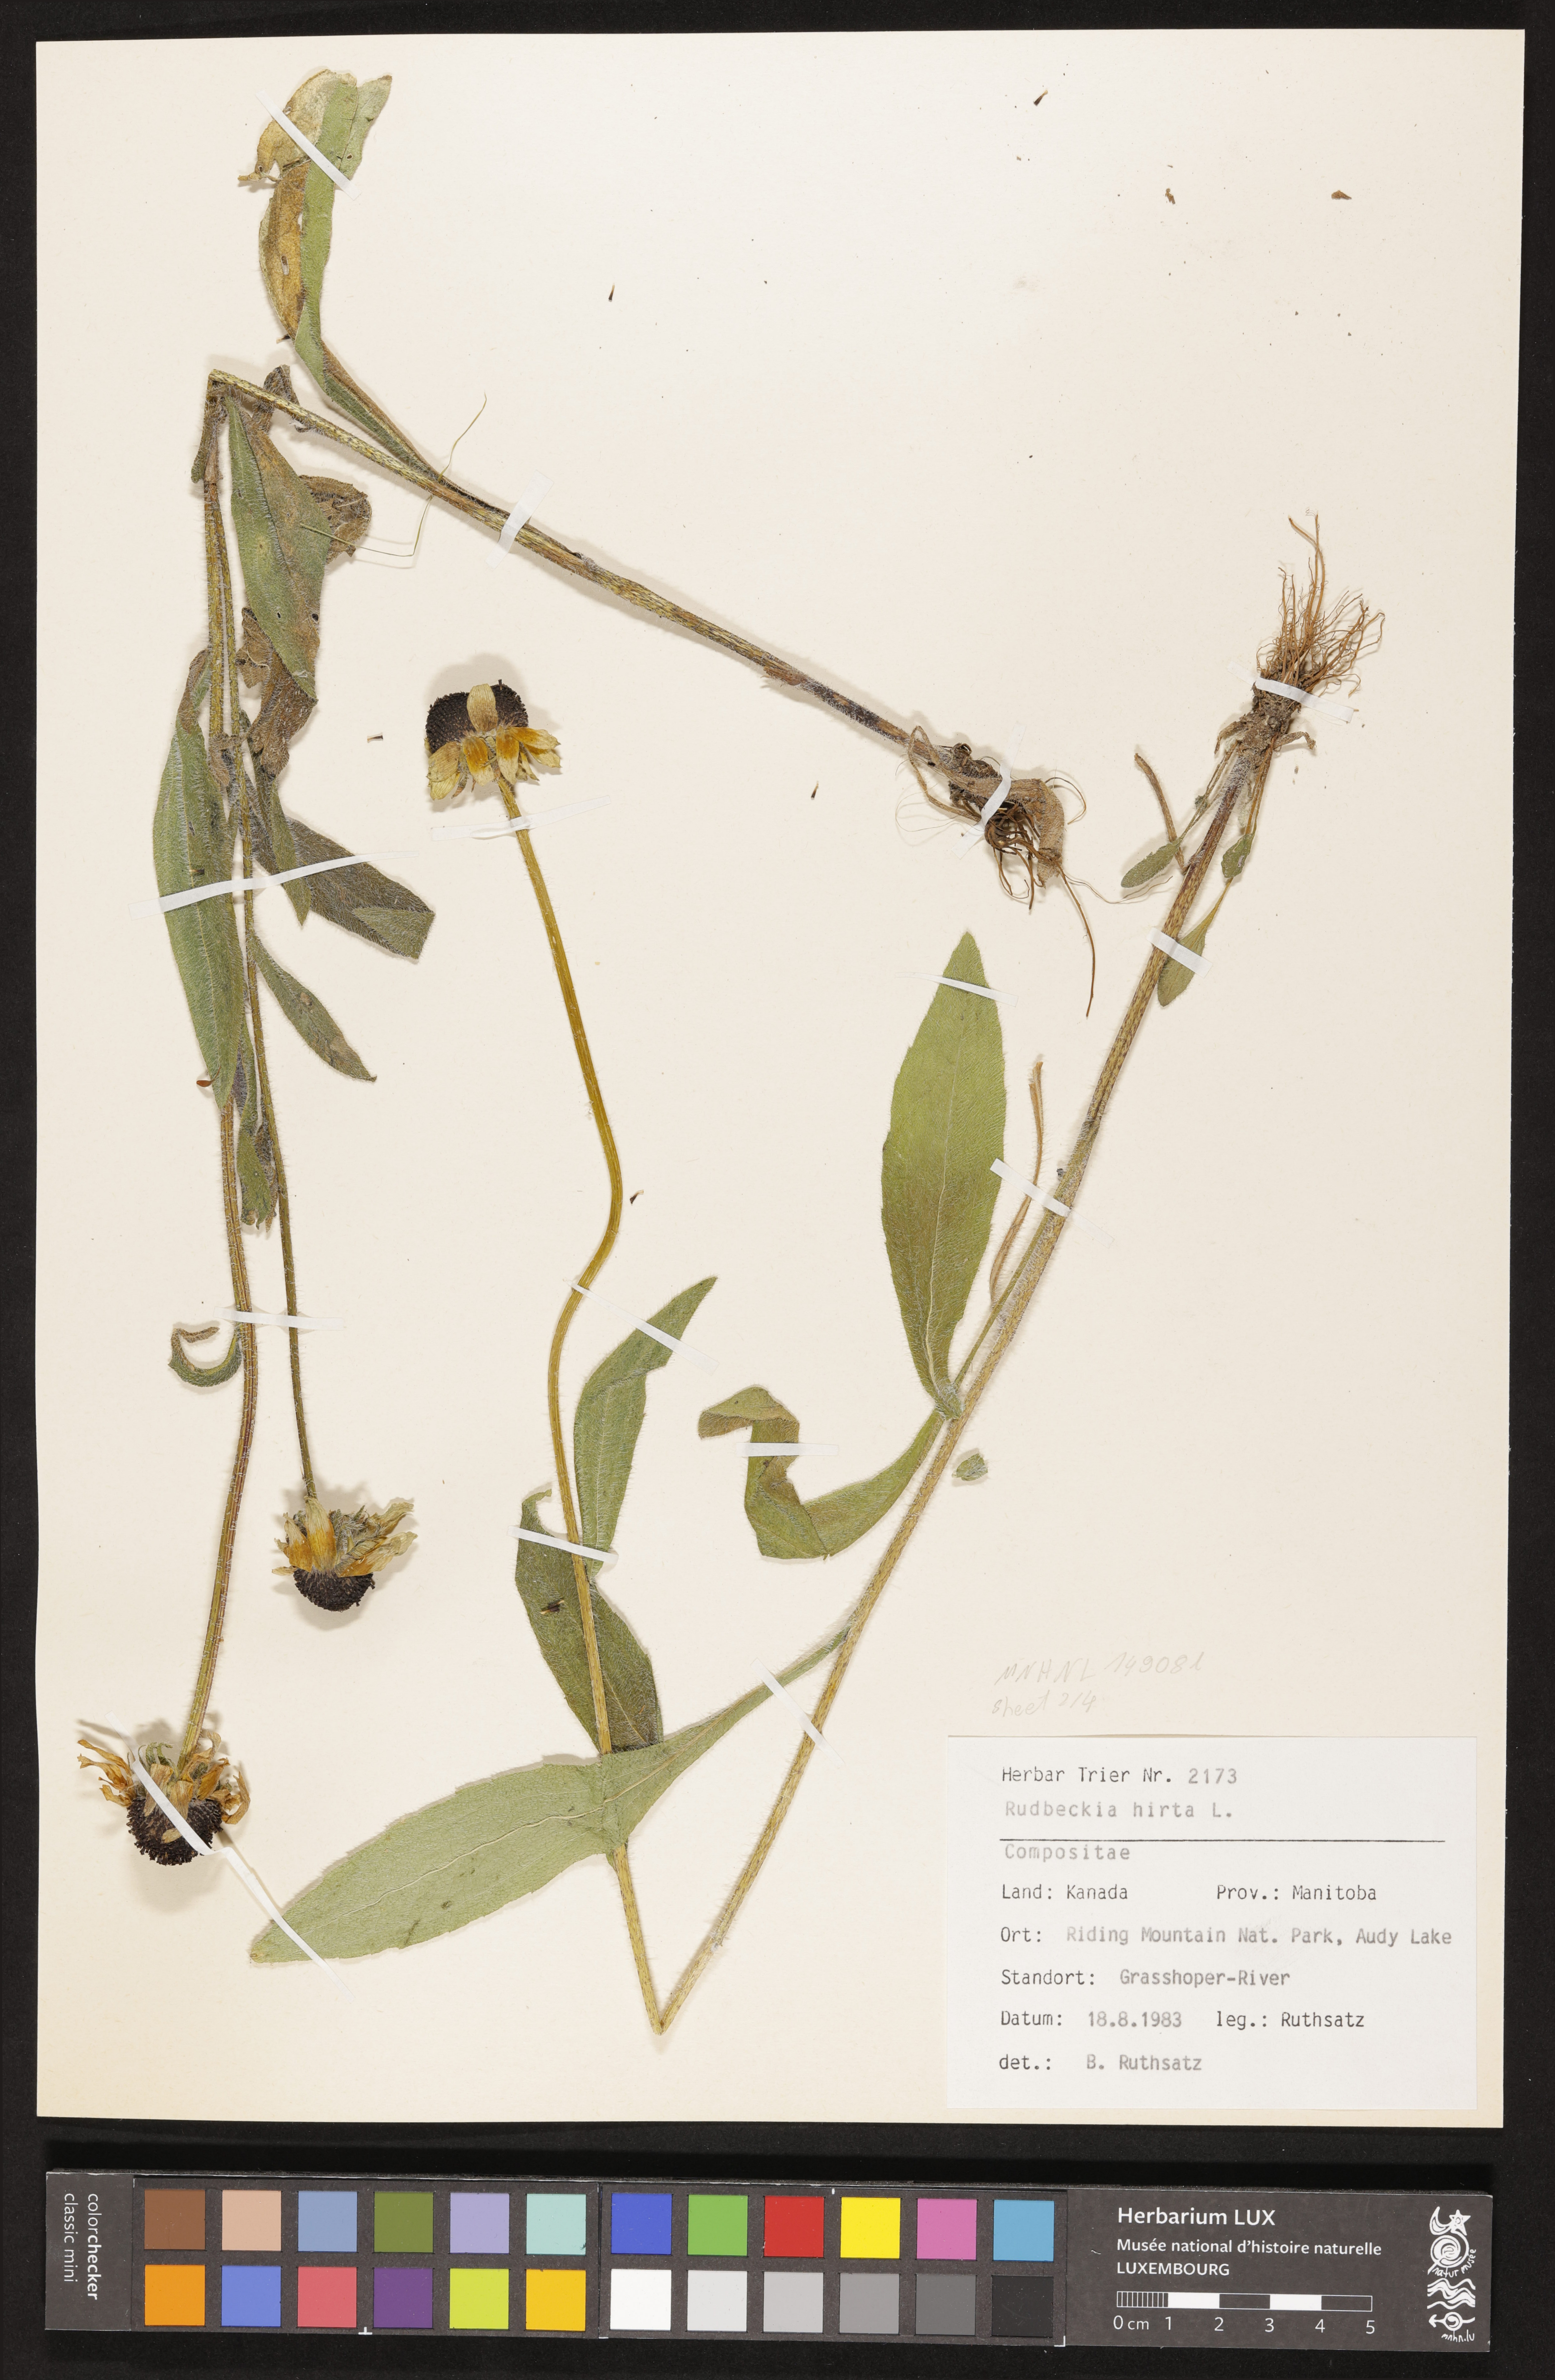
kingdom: Plantae
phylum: Tracheophyta
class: Magnoliopsida
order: Asterales
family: Asteraceae
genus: Rudbeckia
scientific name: Rudbeckia hirta
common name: Black-eyed-susan
